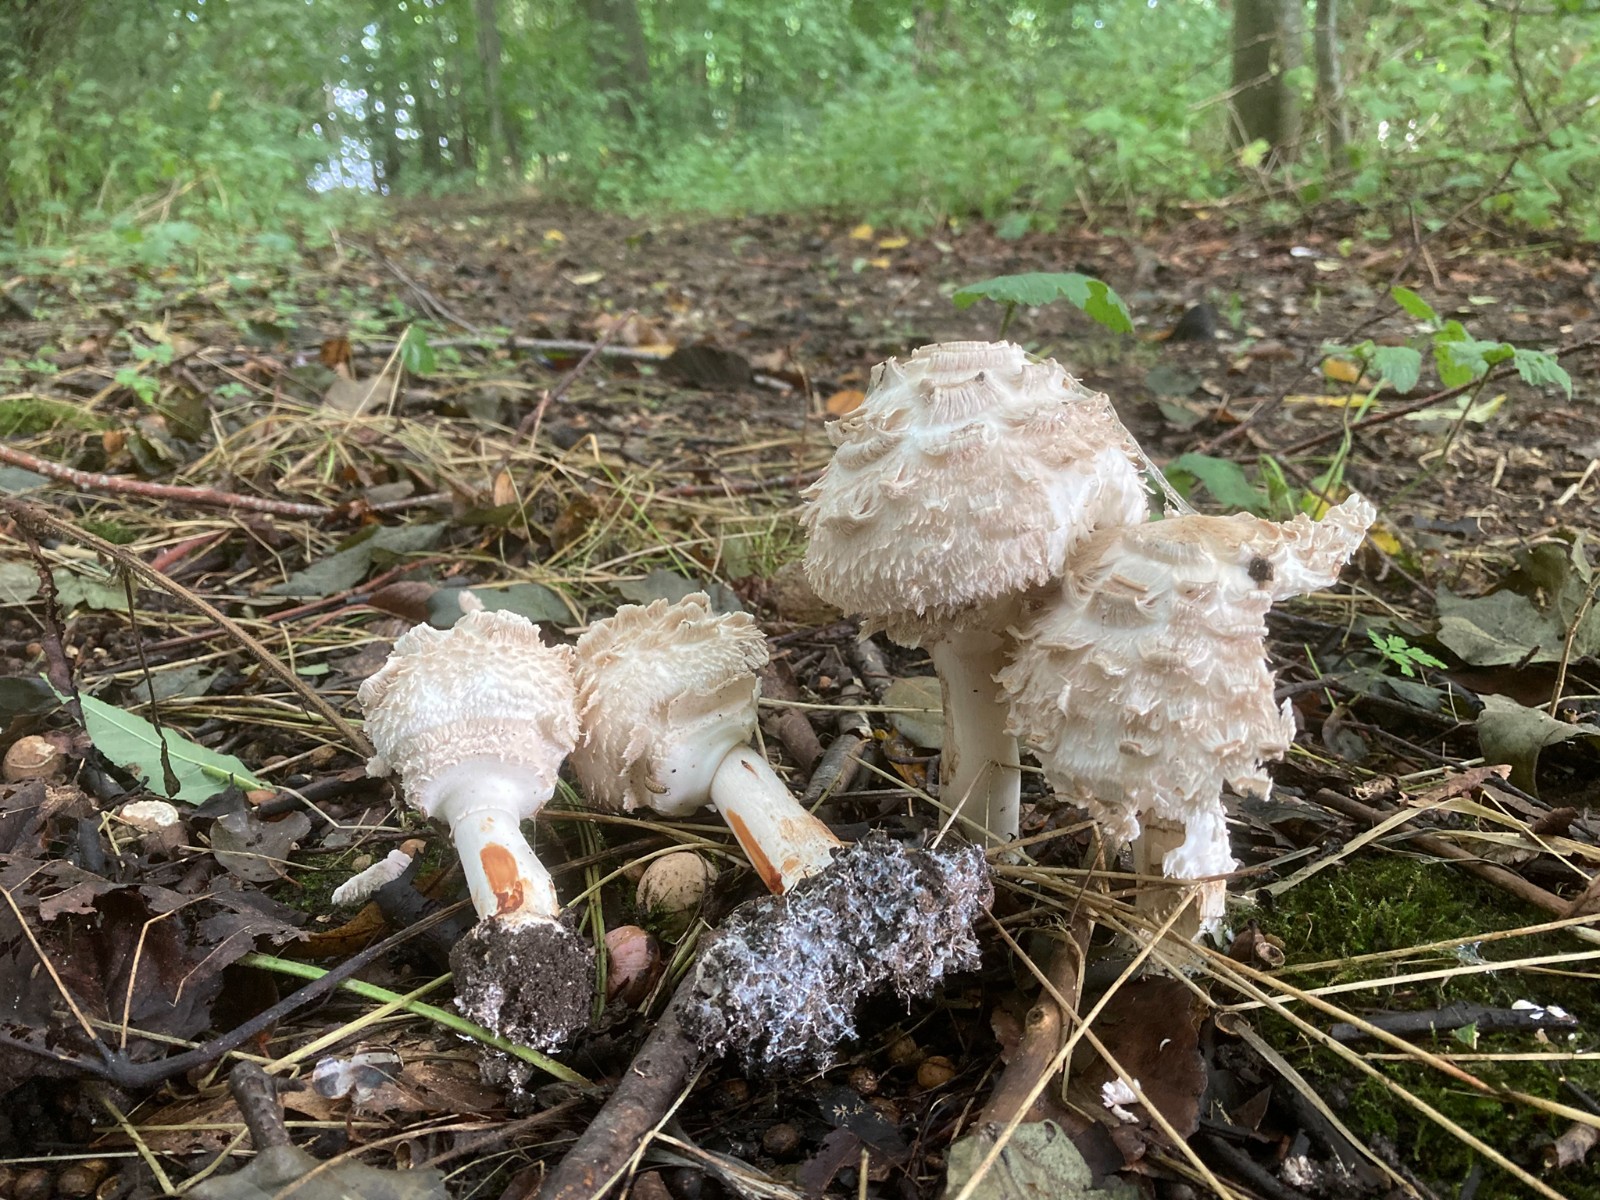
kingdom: Fungi
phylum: Basidiomycota
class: Agaricomycetes
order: Agaricales
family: Agaricaceae
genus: Chlorophyllum
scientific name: Chlorophyllum rhacodes
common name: ægte rabarberhat
